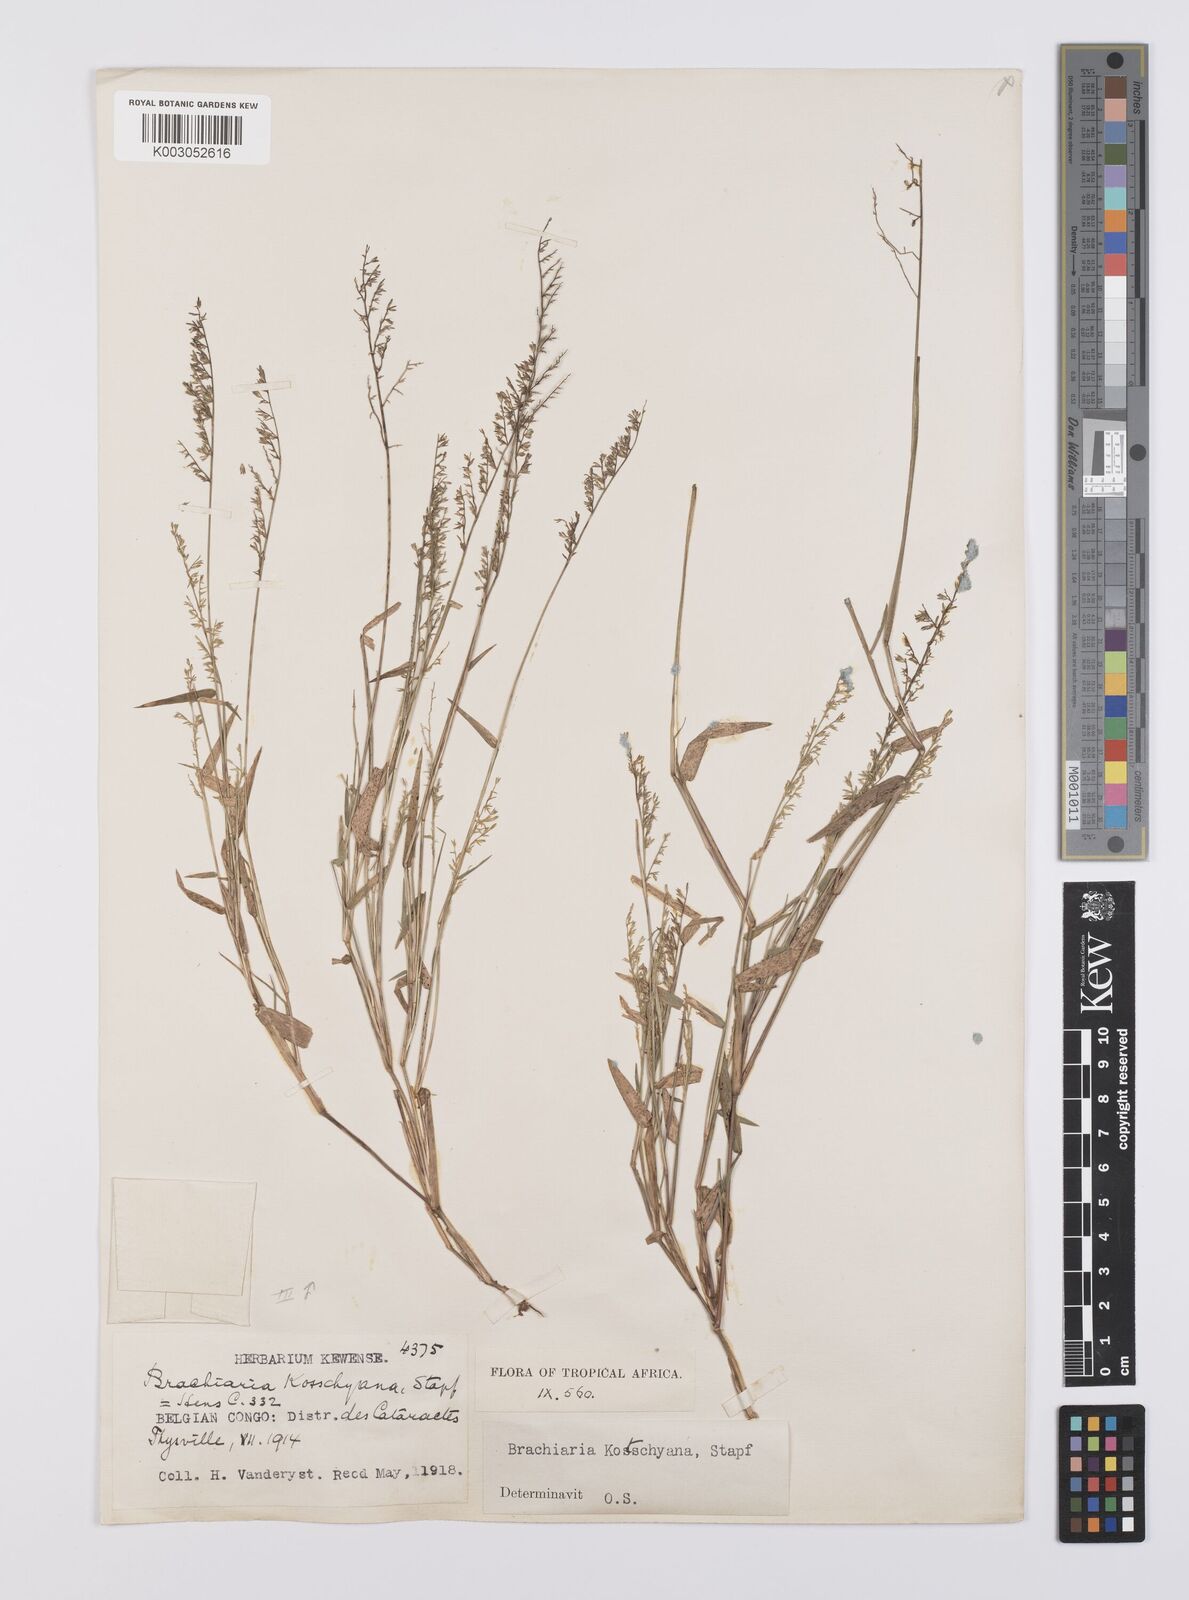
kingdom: Plantae
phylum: Tracheophyta
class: Liliopsida
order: Poales
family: Poaceae
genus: Urochloa
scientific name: Urochloa comata
